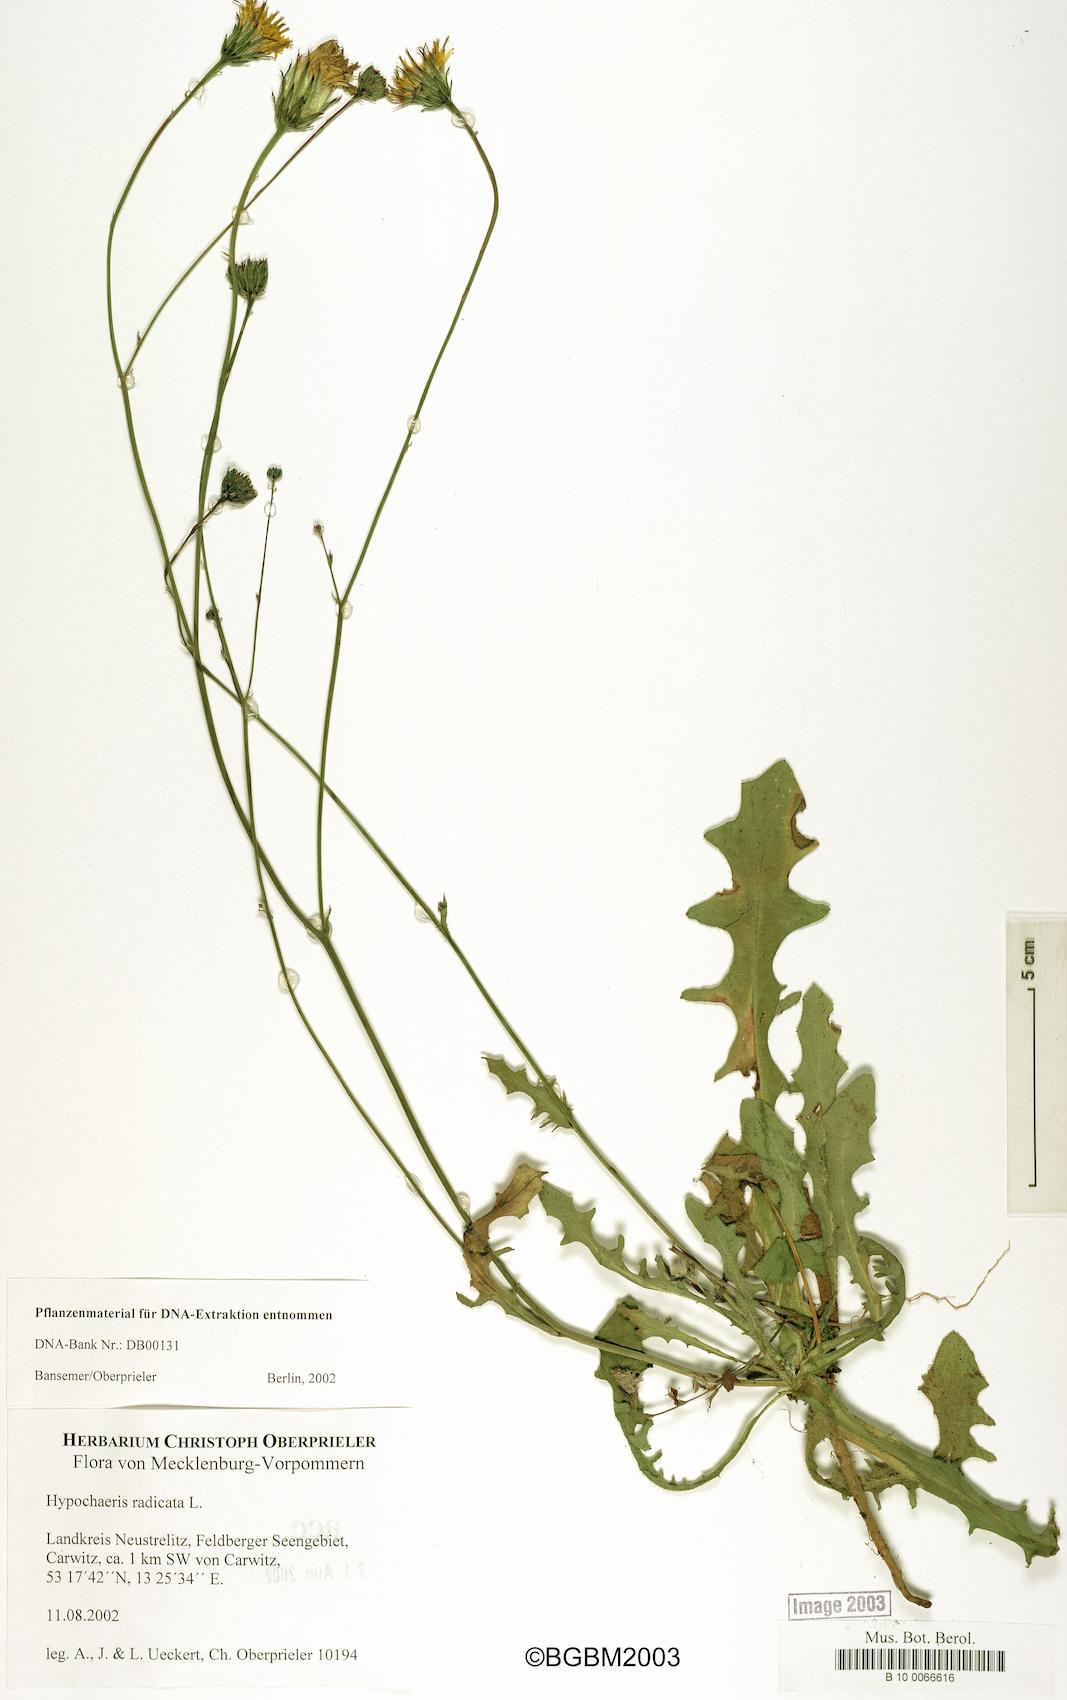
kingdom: Plantae
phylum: Tracheophyta
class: Magnoliopsida
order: Asterales
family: Asteraceae
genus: Hypochaeris
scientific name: Hypochaeris radicata
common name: Flatweed
